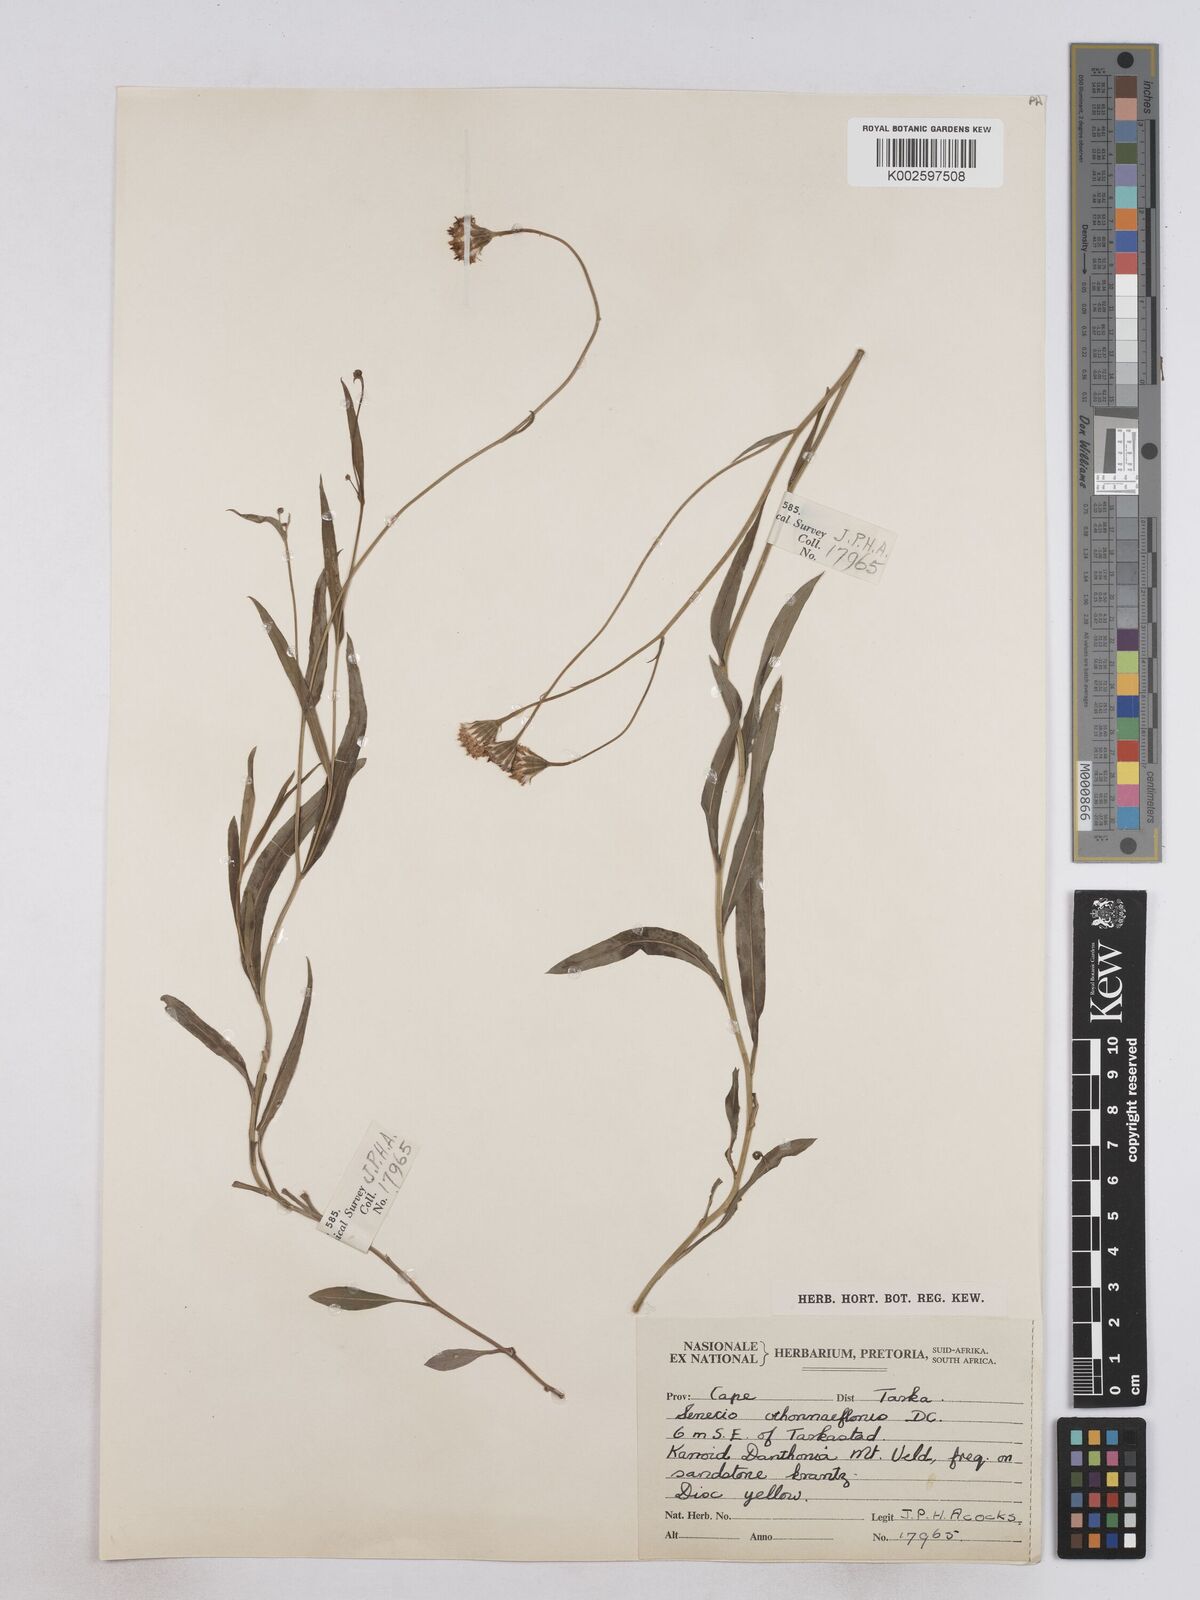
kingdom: Plantae
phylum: Tracheophyta
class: Magnoliopsida
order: Asterales
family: Asteraceae
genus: Senecio
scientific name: Senecio othonniflorus
